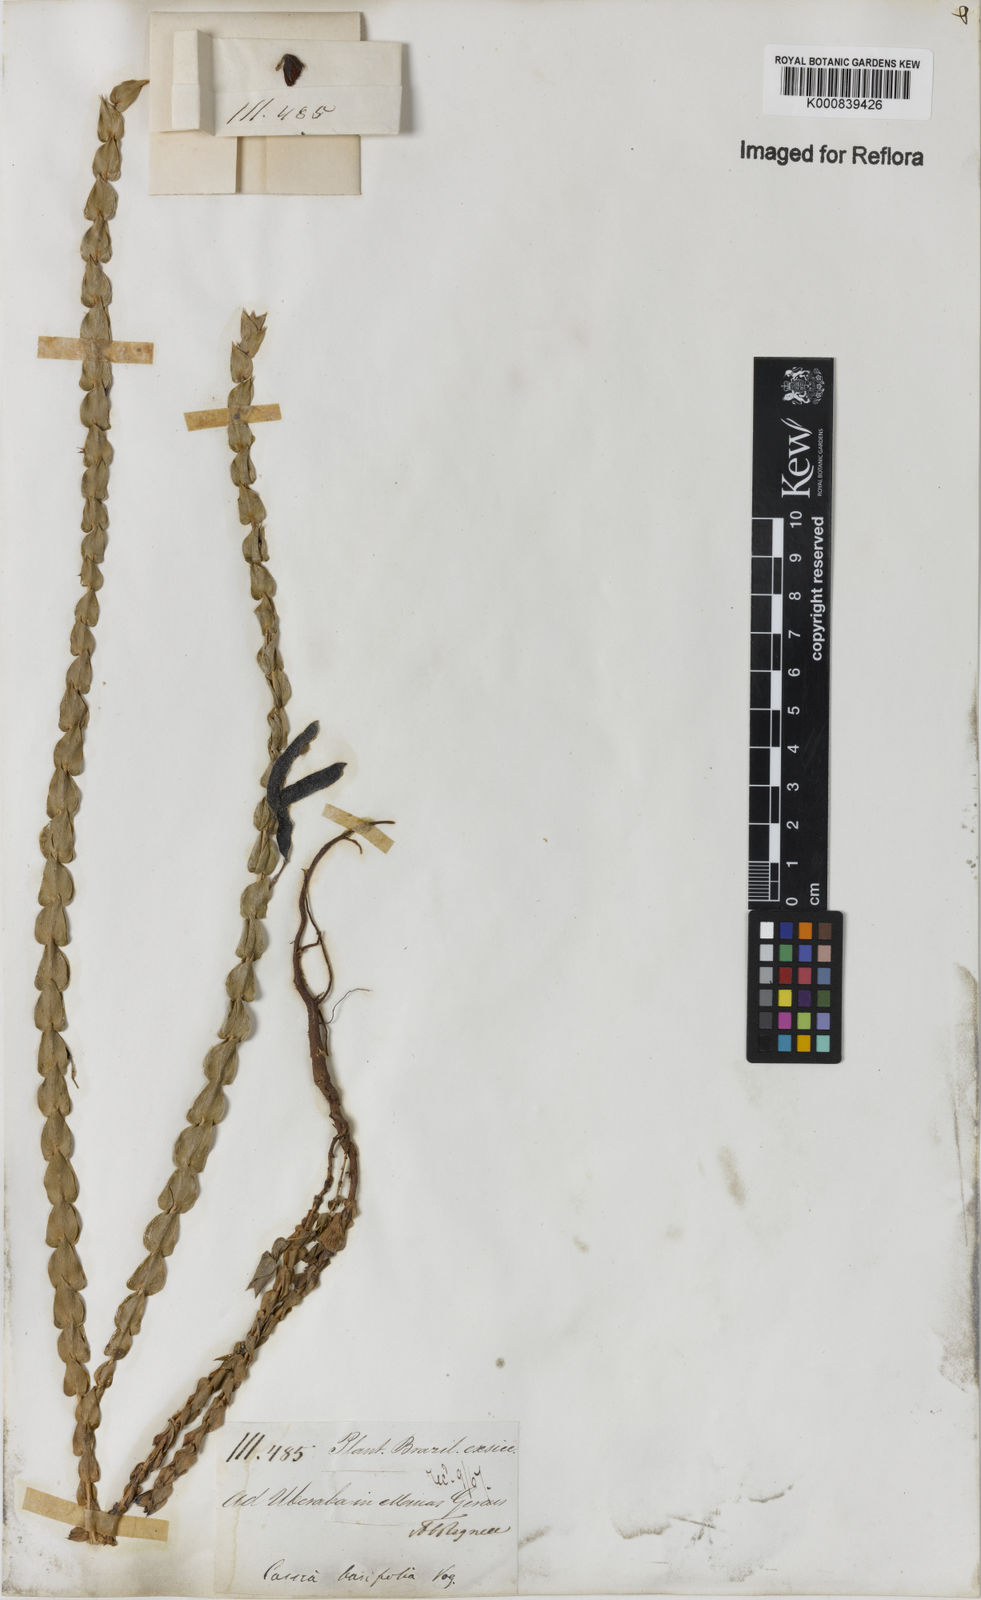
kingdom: Plantae
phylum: Tracheophyta
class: Magnoliopsida
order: Fabales
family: Fabaceae
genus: Chamaecrista
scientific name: Chamaecrista basifolia
